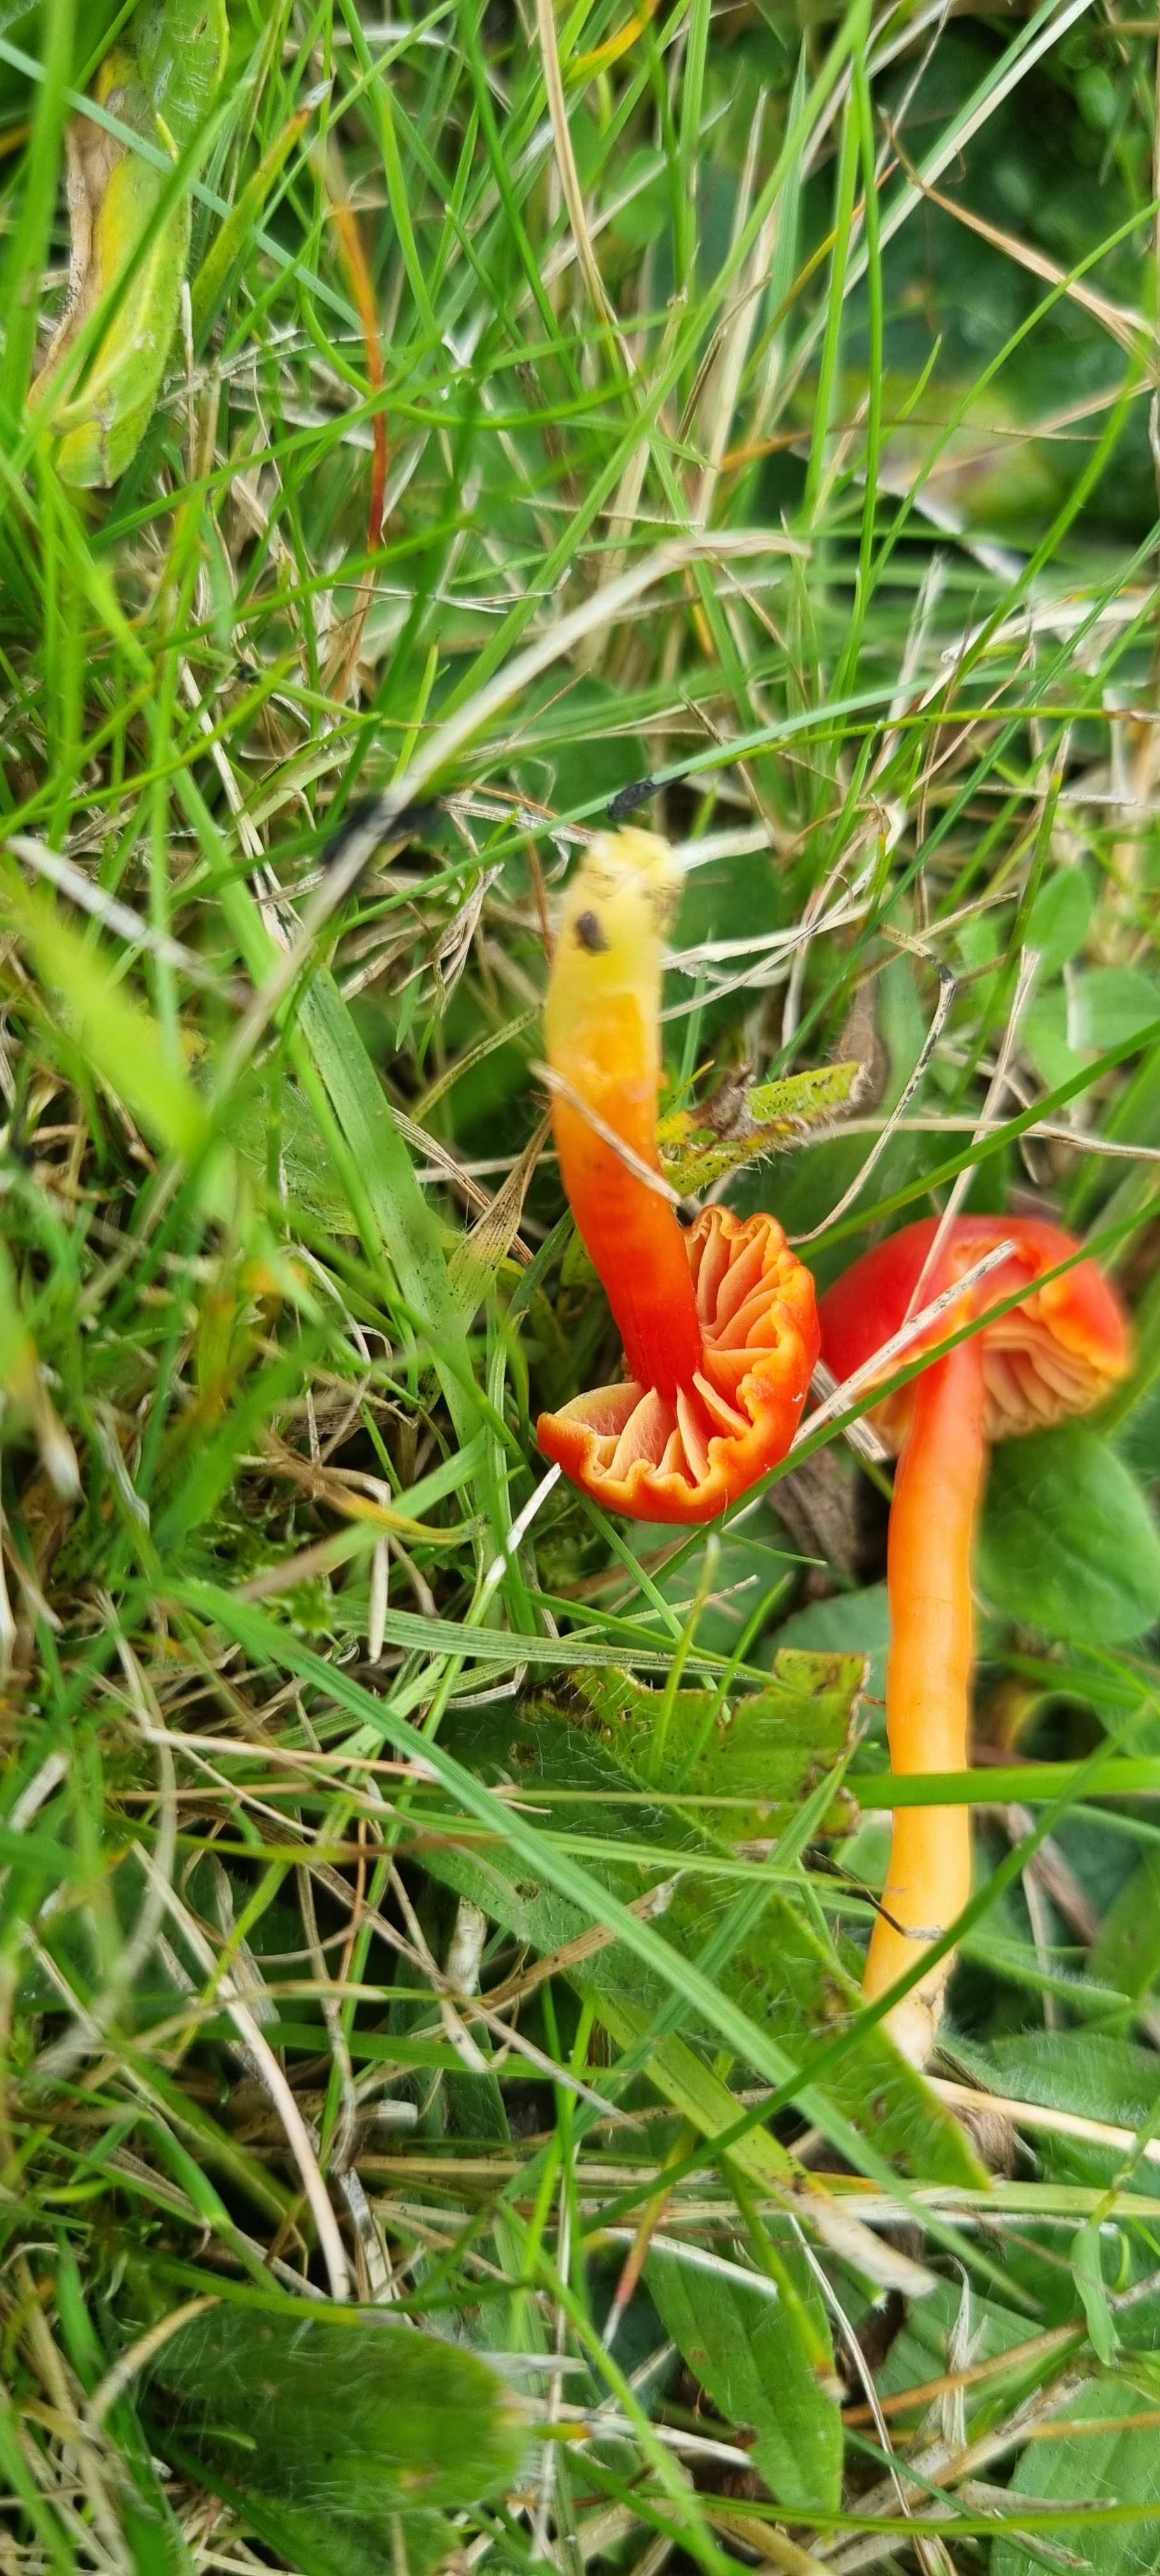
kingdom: Fungi
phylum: Basidiomycota
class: Agaricomycetes
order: Agaricales
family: Hygrophoraceae
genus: Hygrocybe
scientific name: Hygrocybe
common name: vokshat
